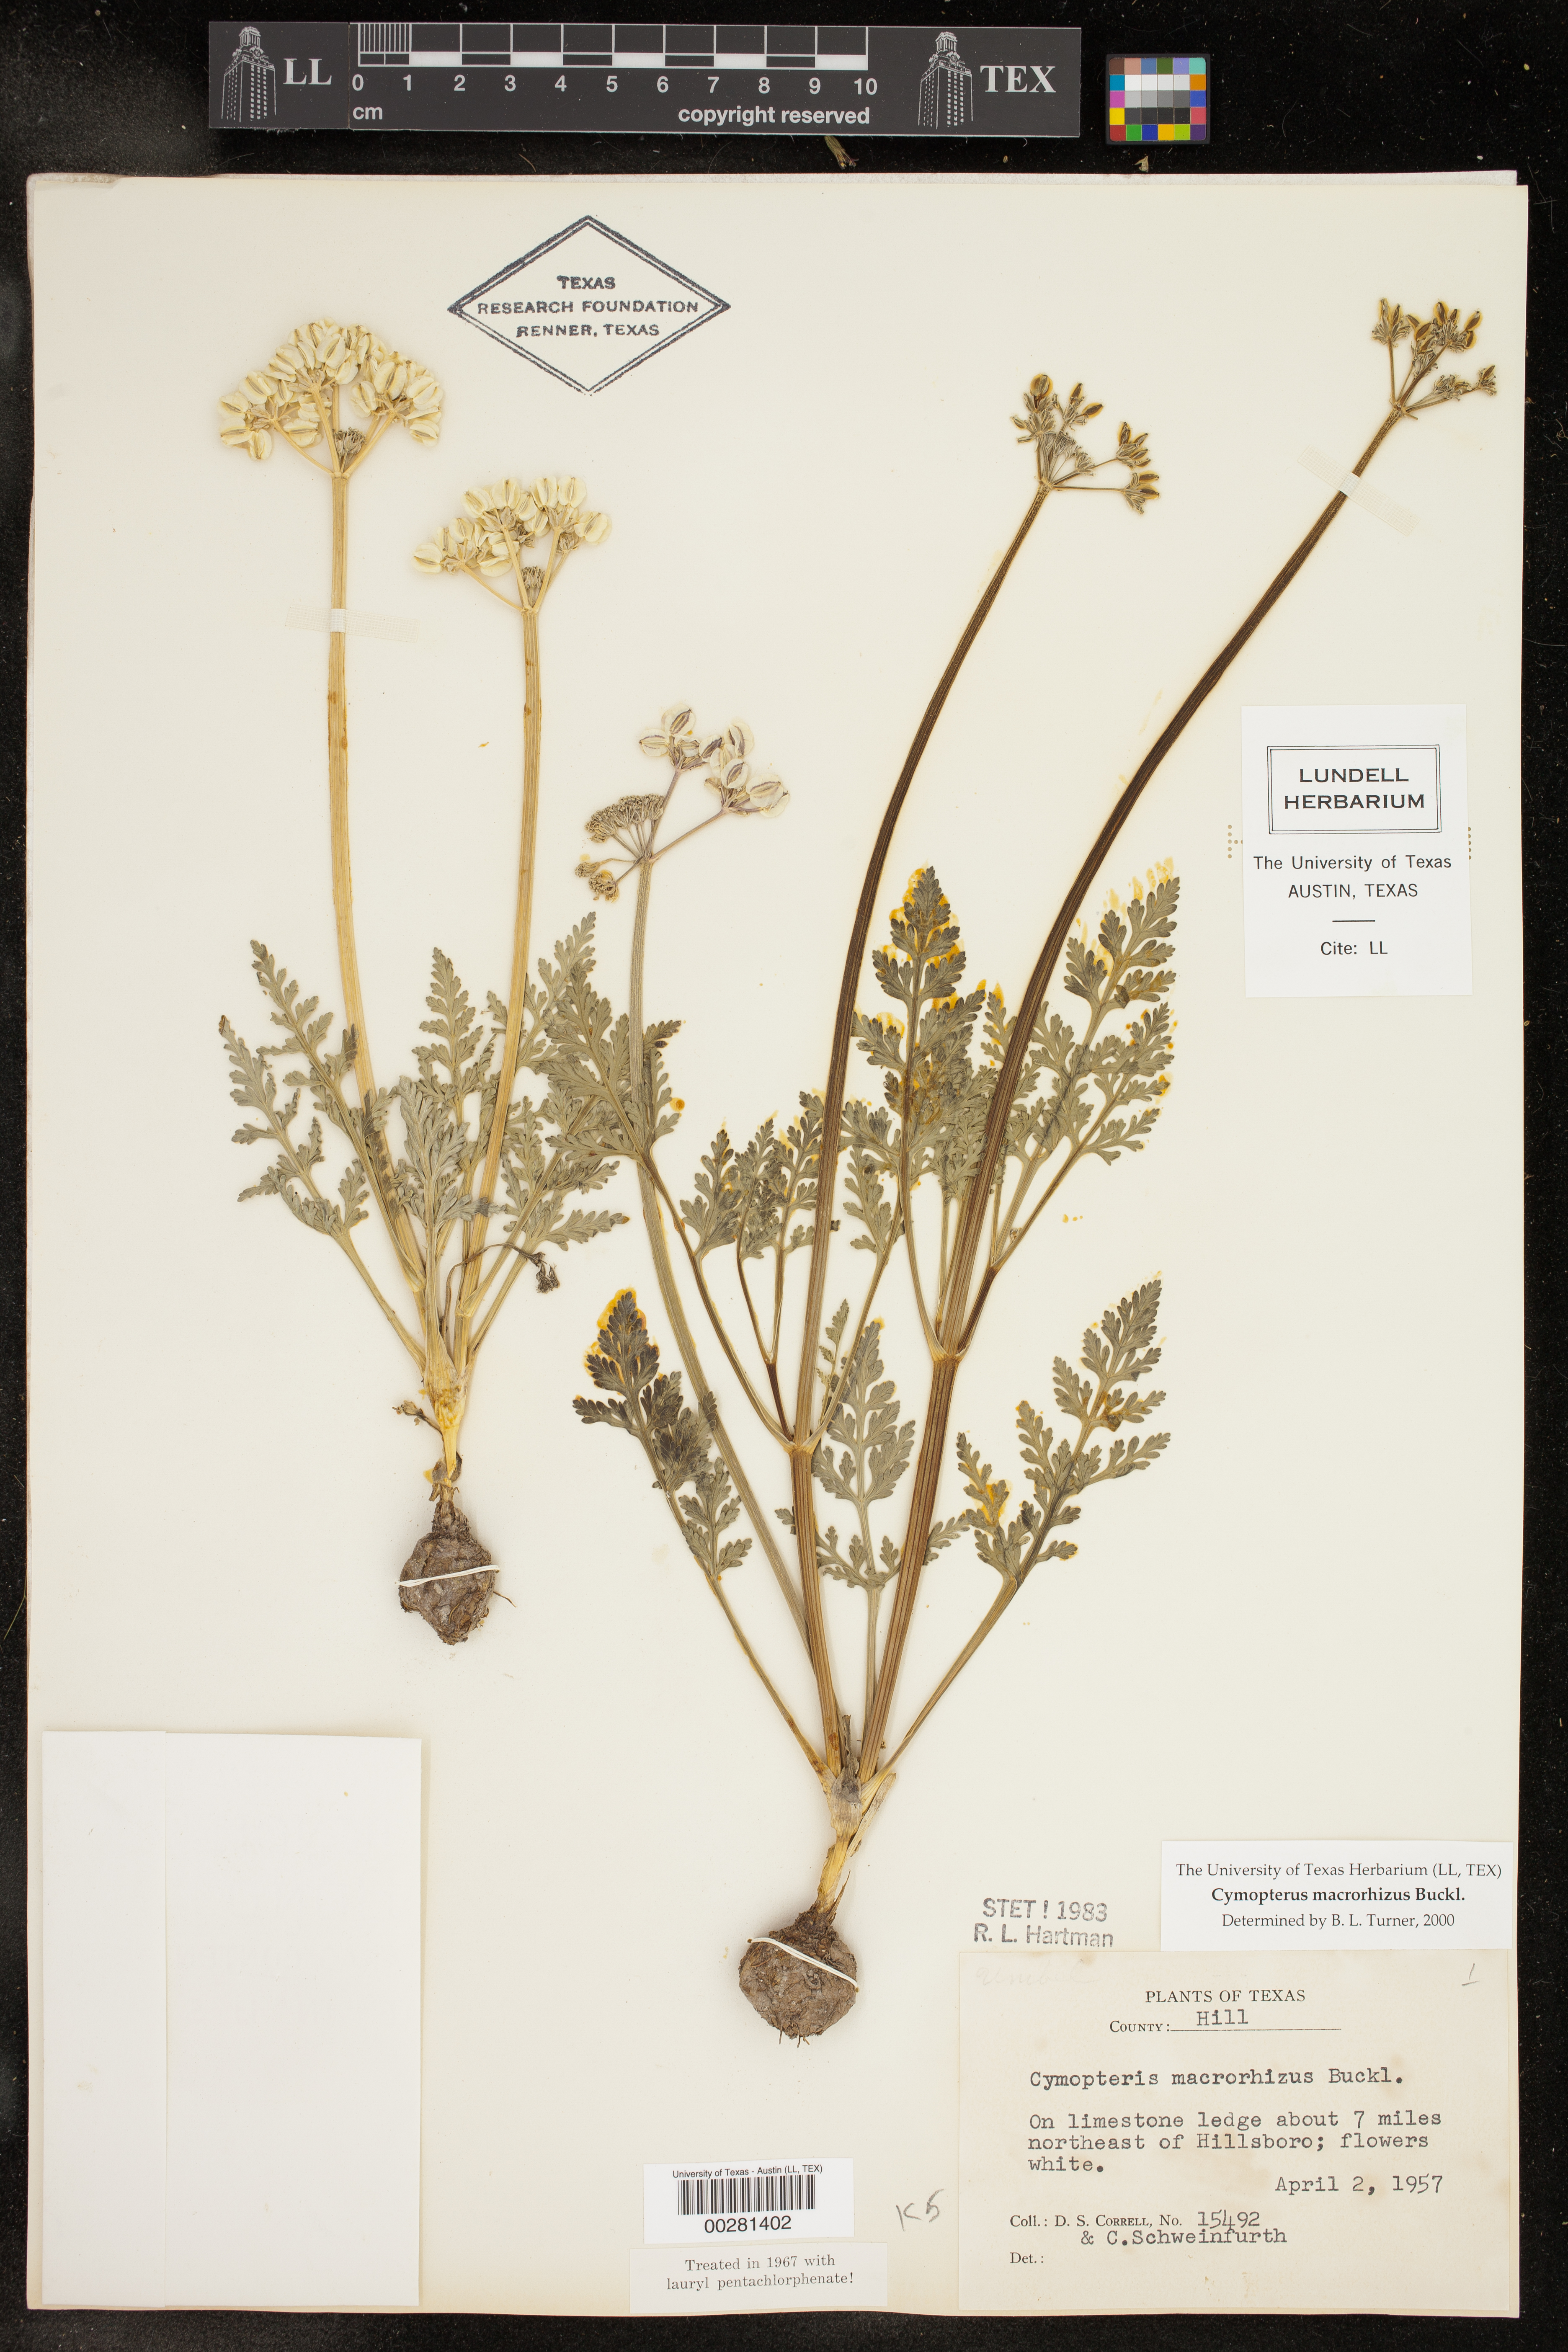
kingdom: Plantae
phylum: Tracheophyta
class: Magnoliopsida
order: Apiales
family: Apiaceae
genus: Vesper
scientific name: Vesper macrorhizus
